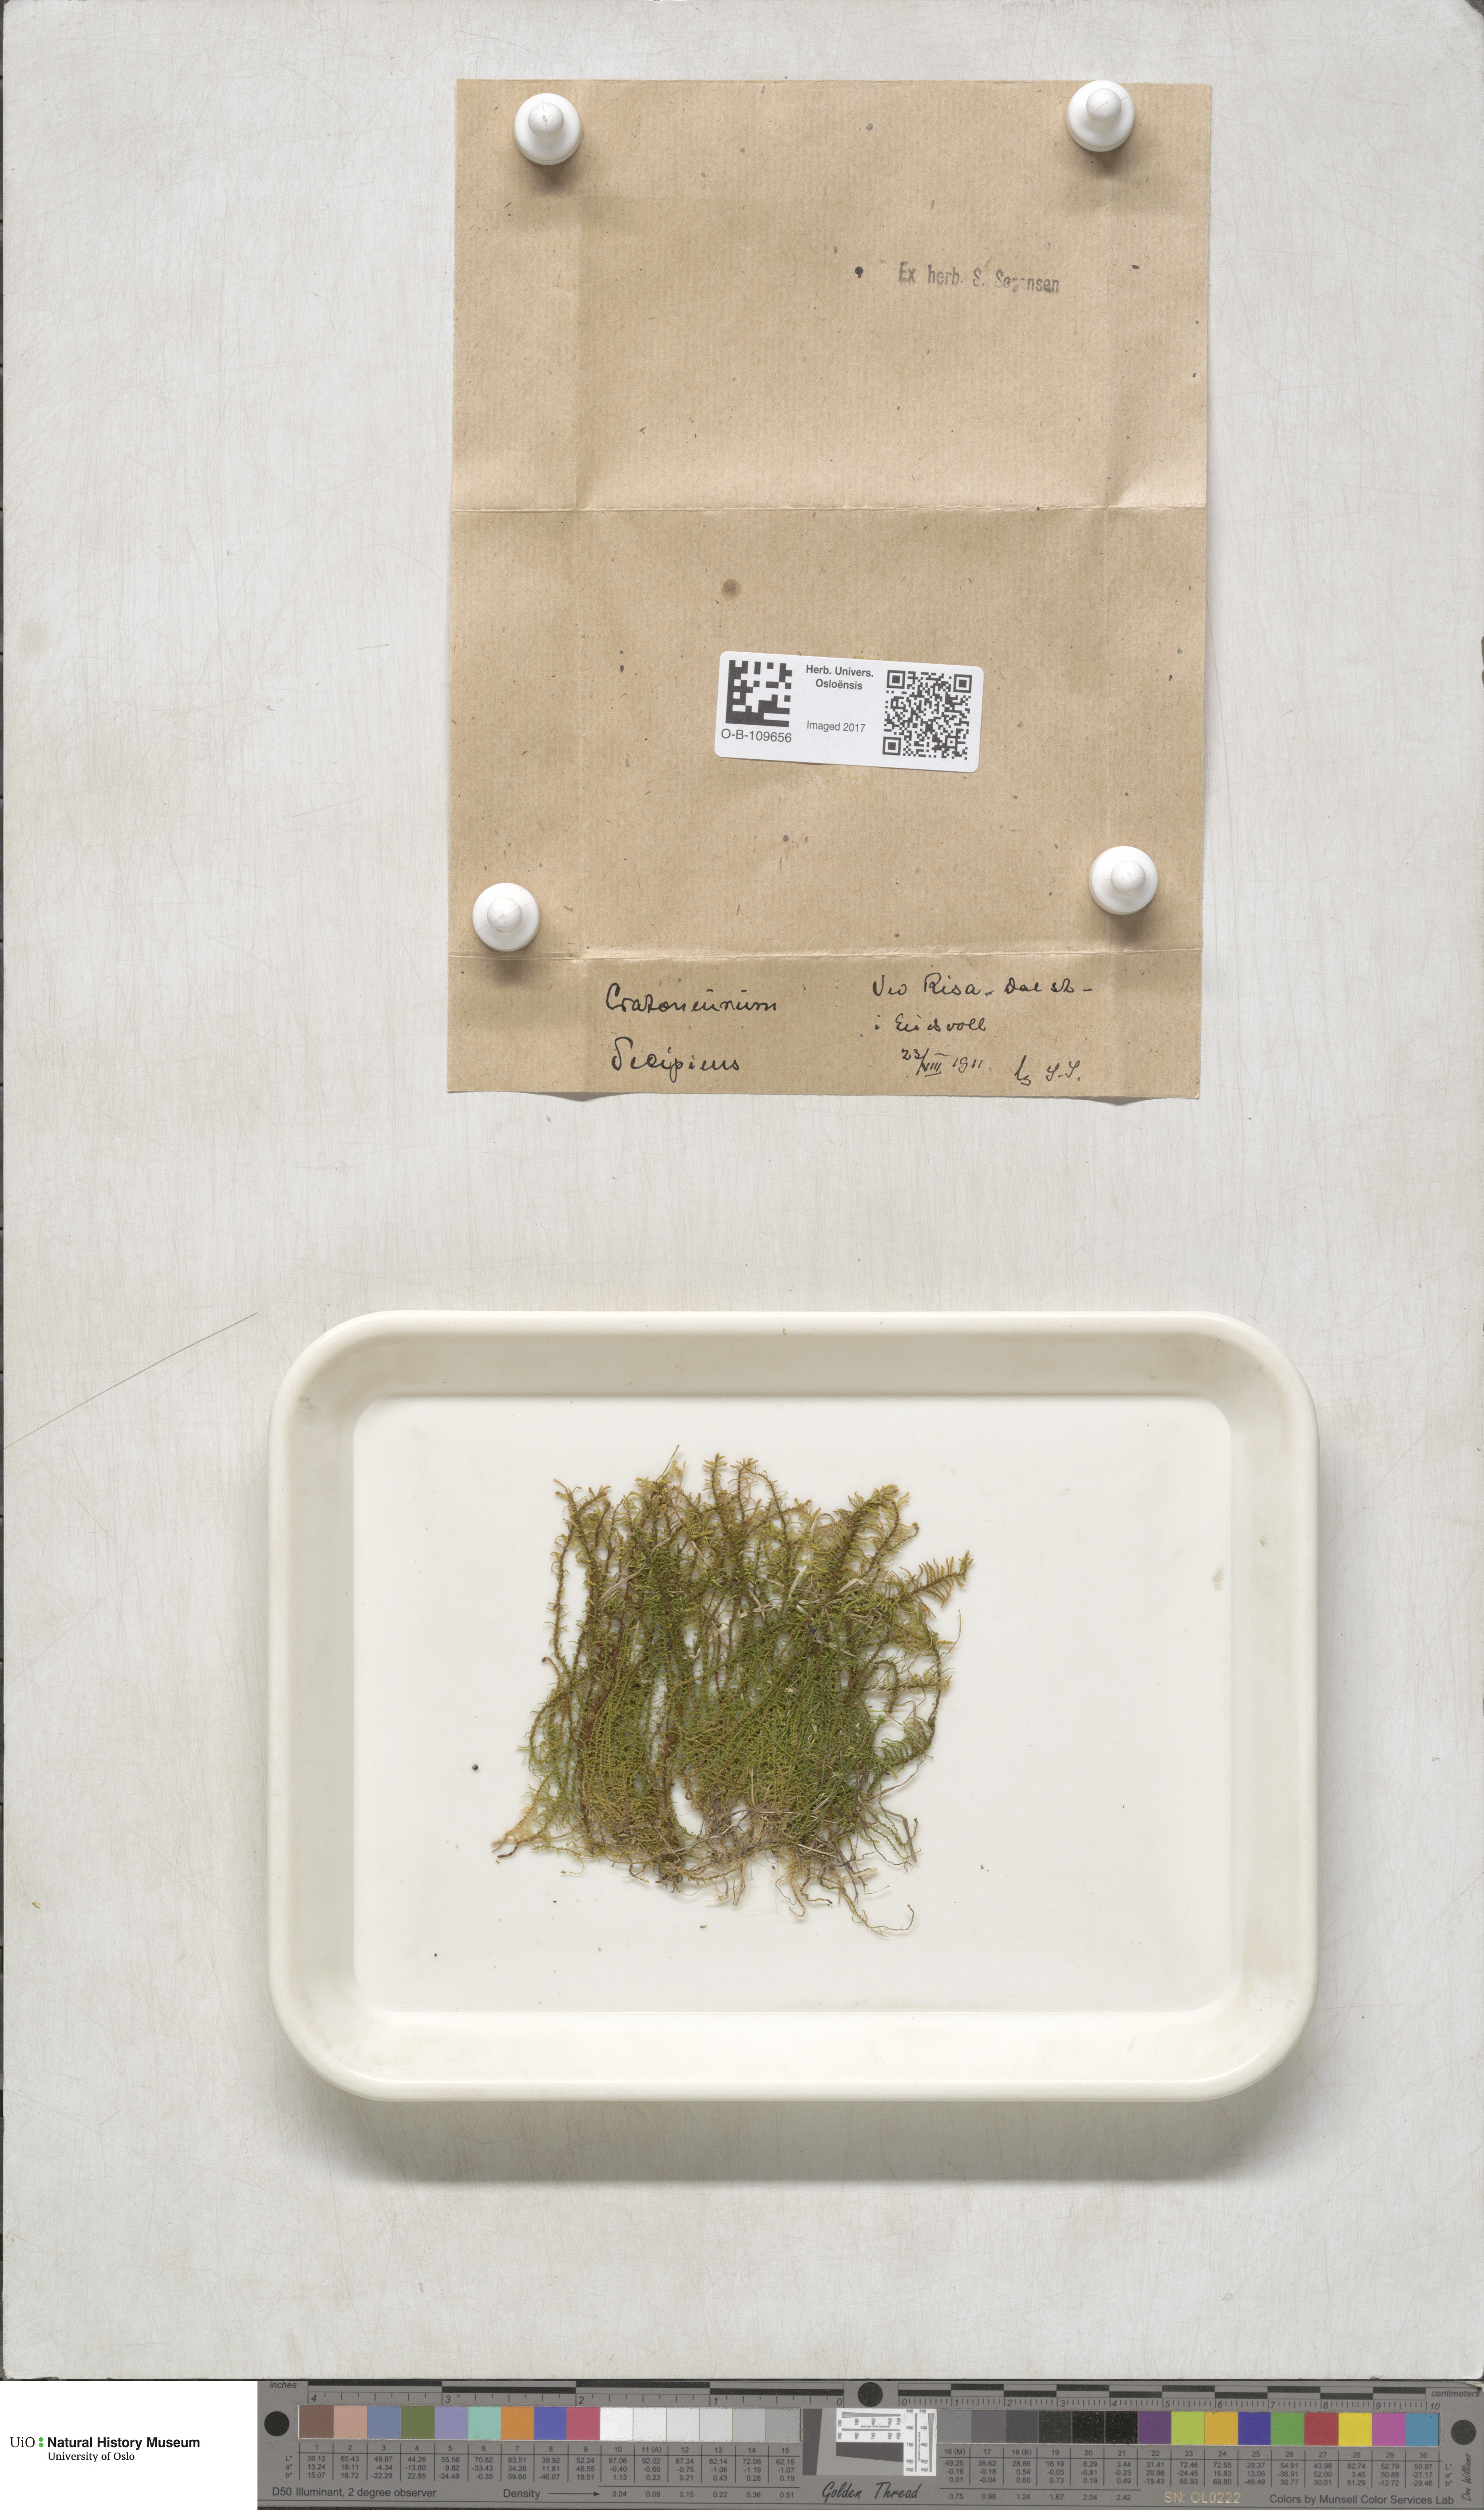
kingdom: Plantae
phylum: Bryophyta
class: Bryopsida
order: Hypnales
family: Amblystegiaceae
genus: Palustriella
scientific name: Palustriella decipiens
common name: Lesser curled hook-moss
